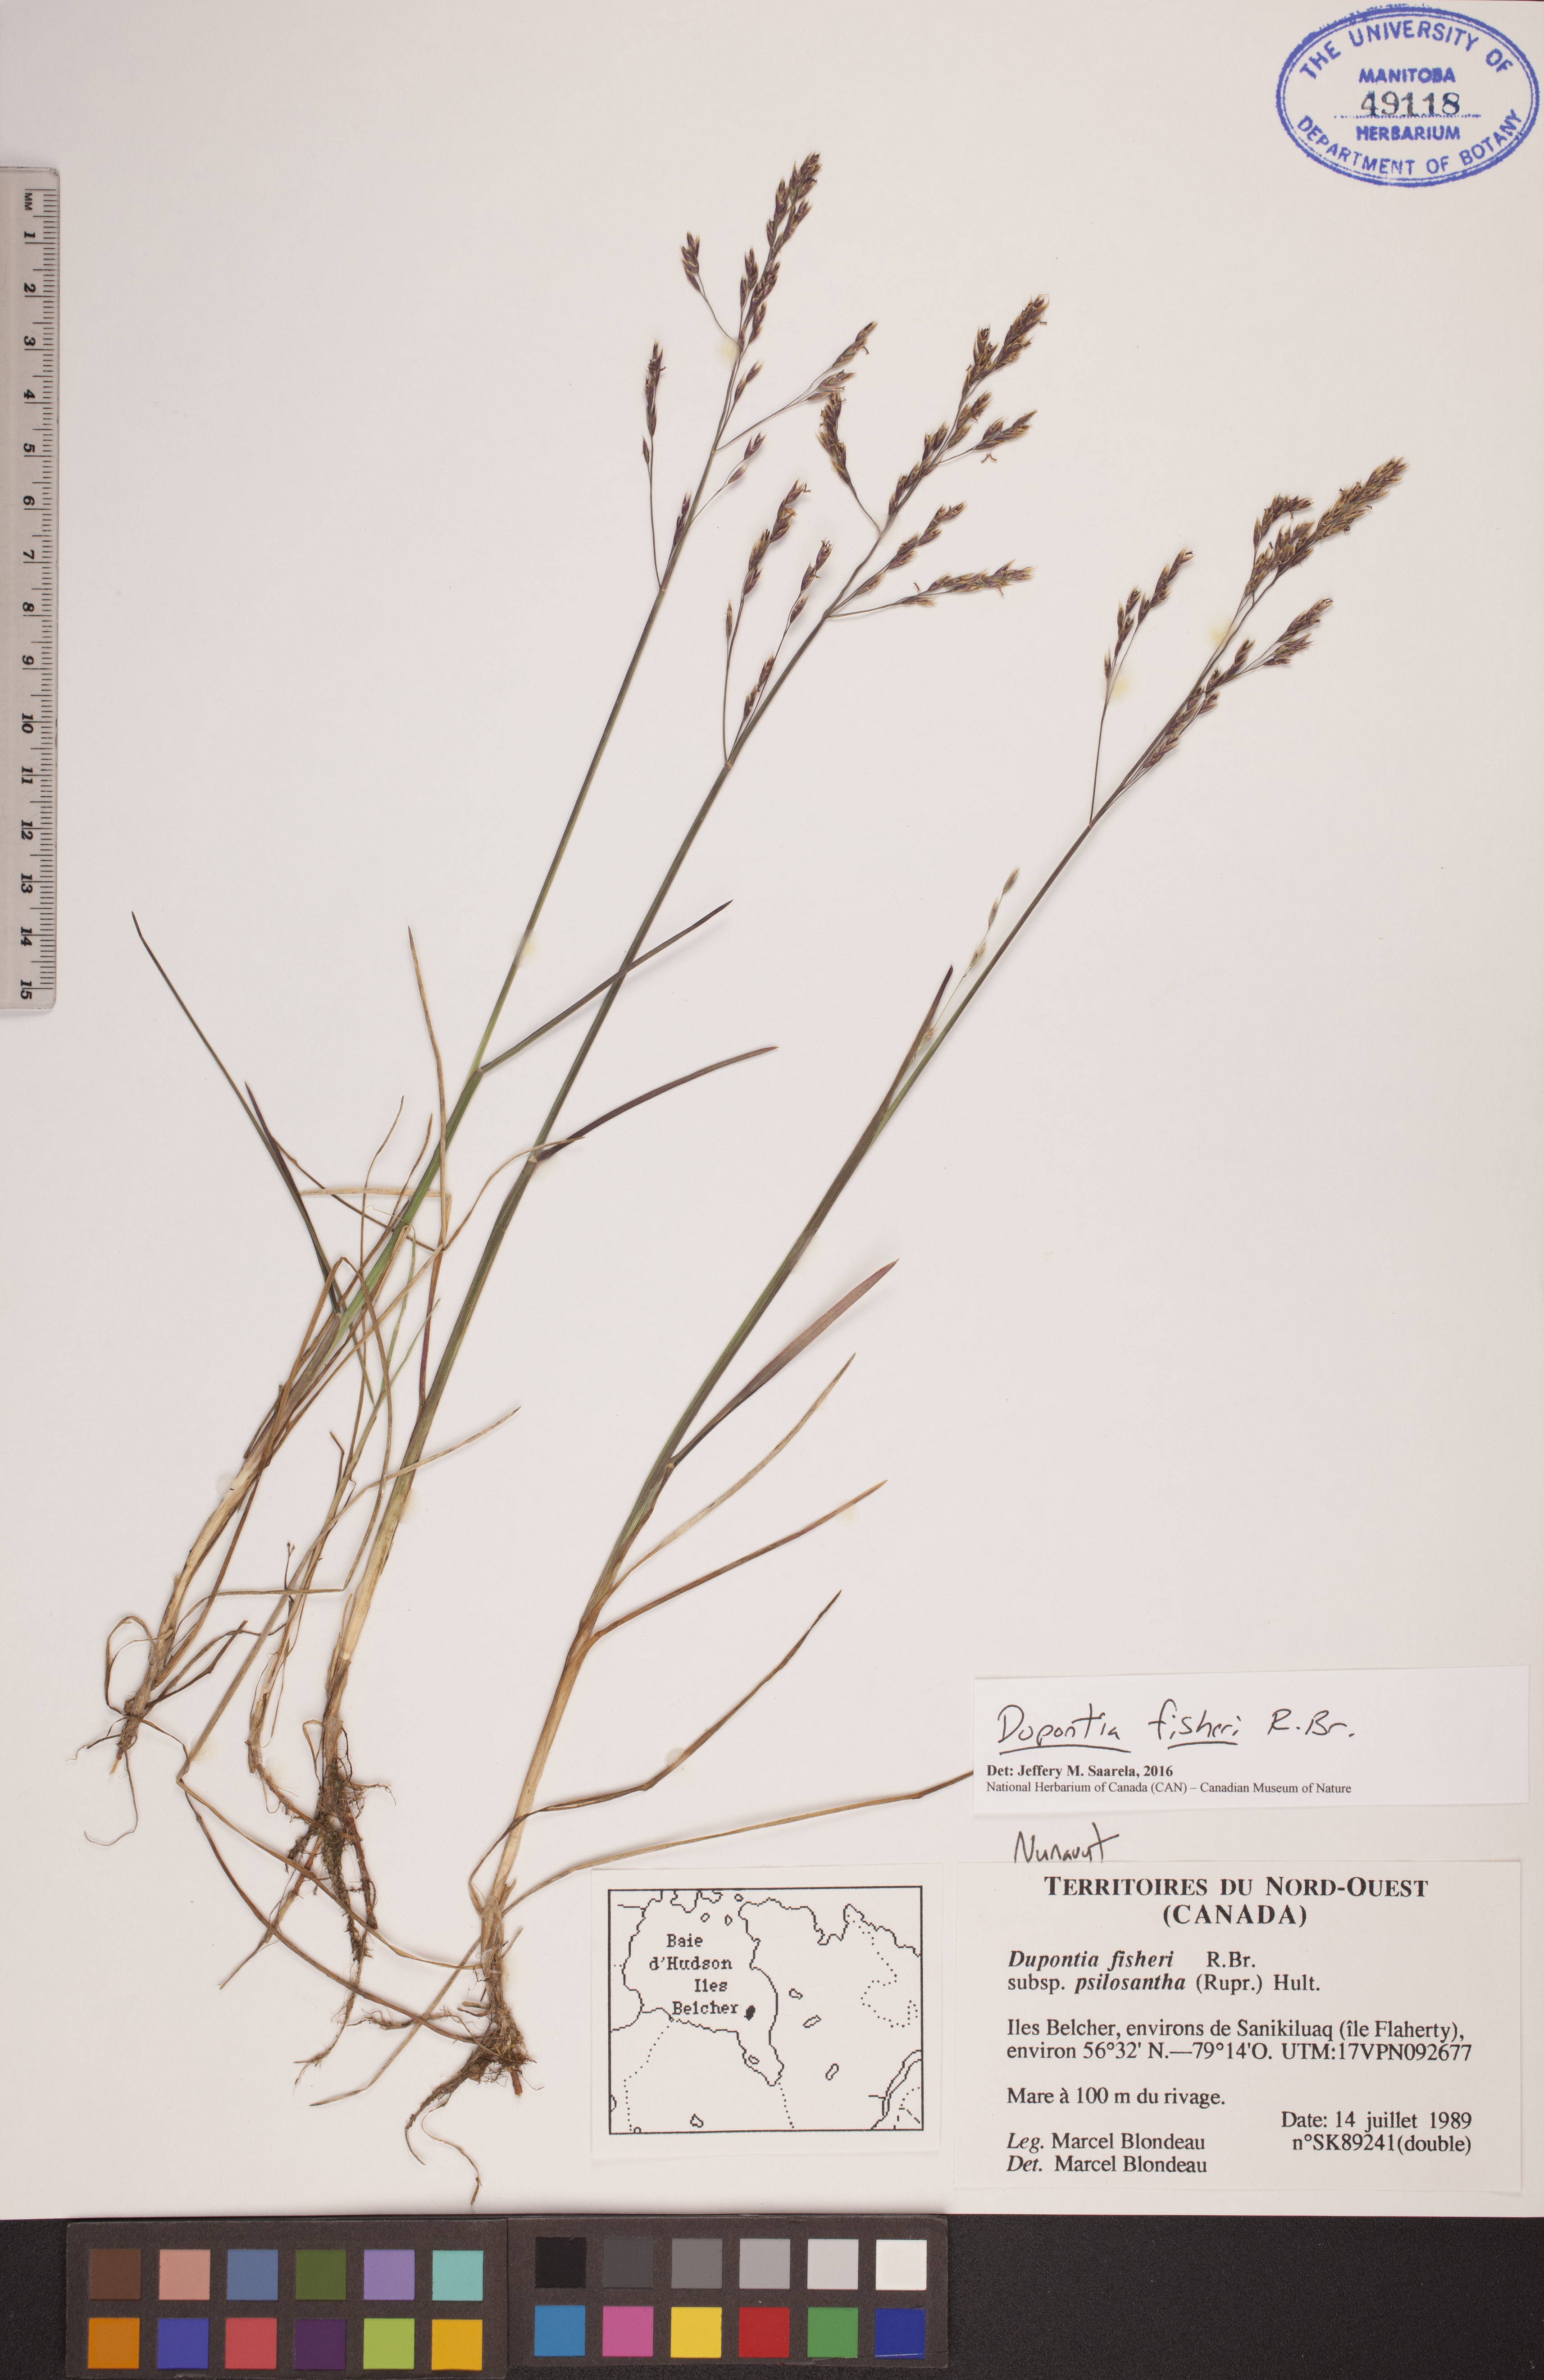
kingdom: Plantae
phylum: Tracheophyta
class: Liliopsida
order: Poales
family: Poaceae
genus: Dupontia
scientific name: Dupontia fisheri
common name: Tundra grass
